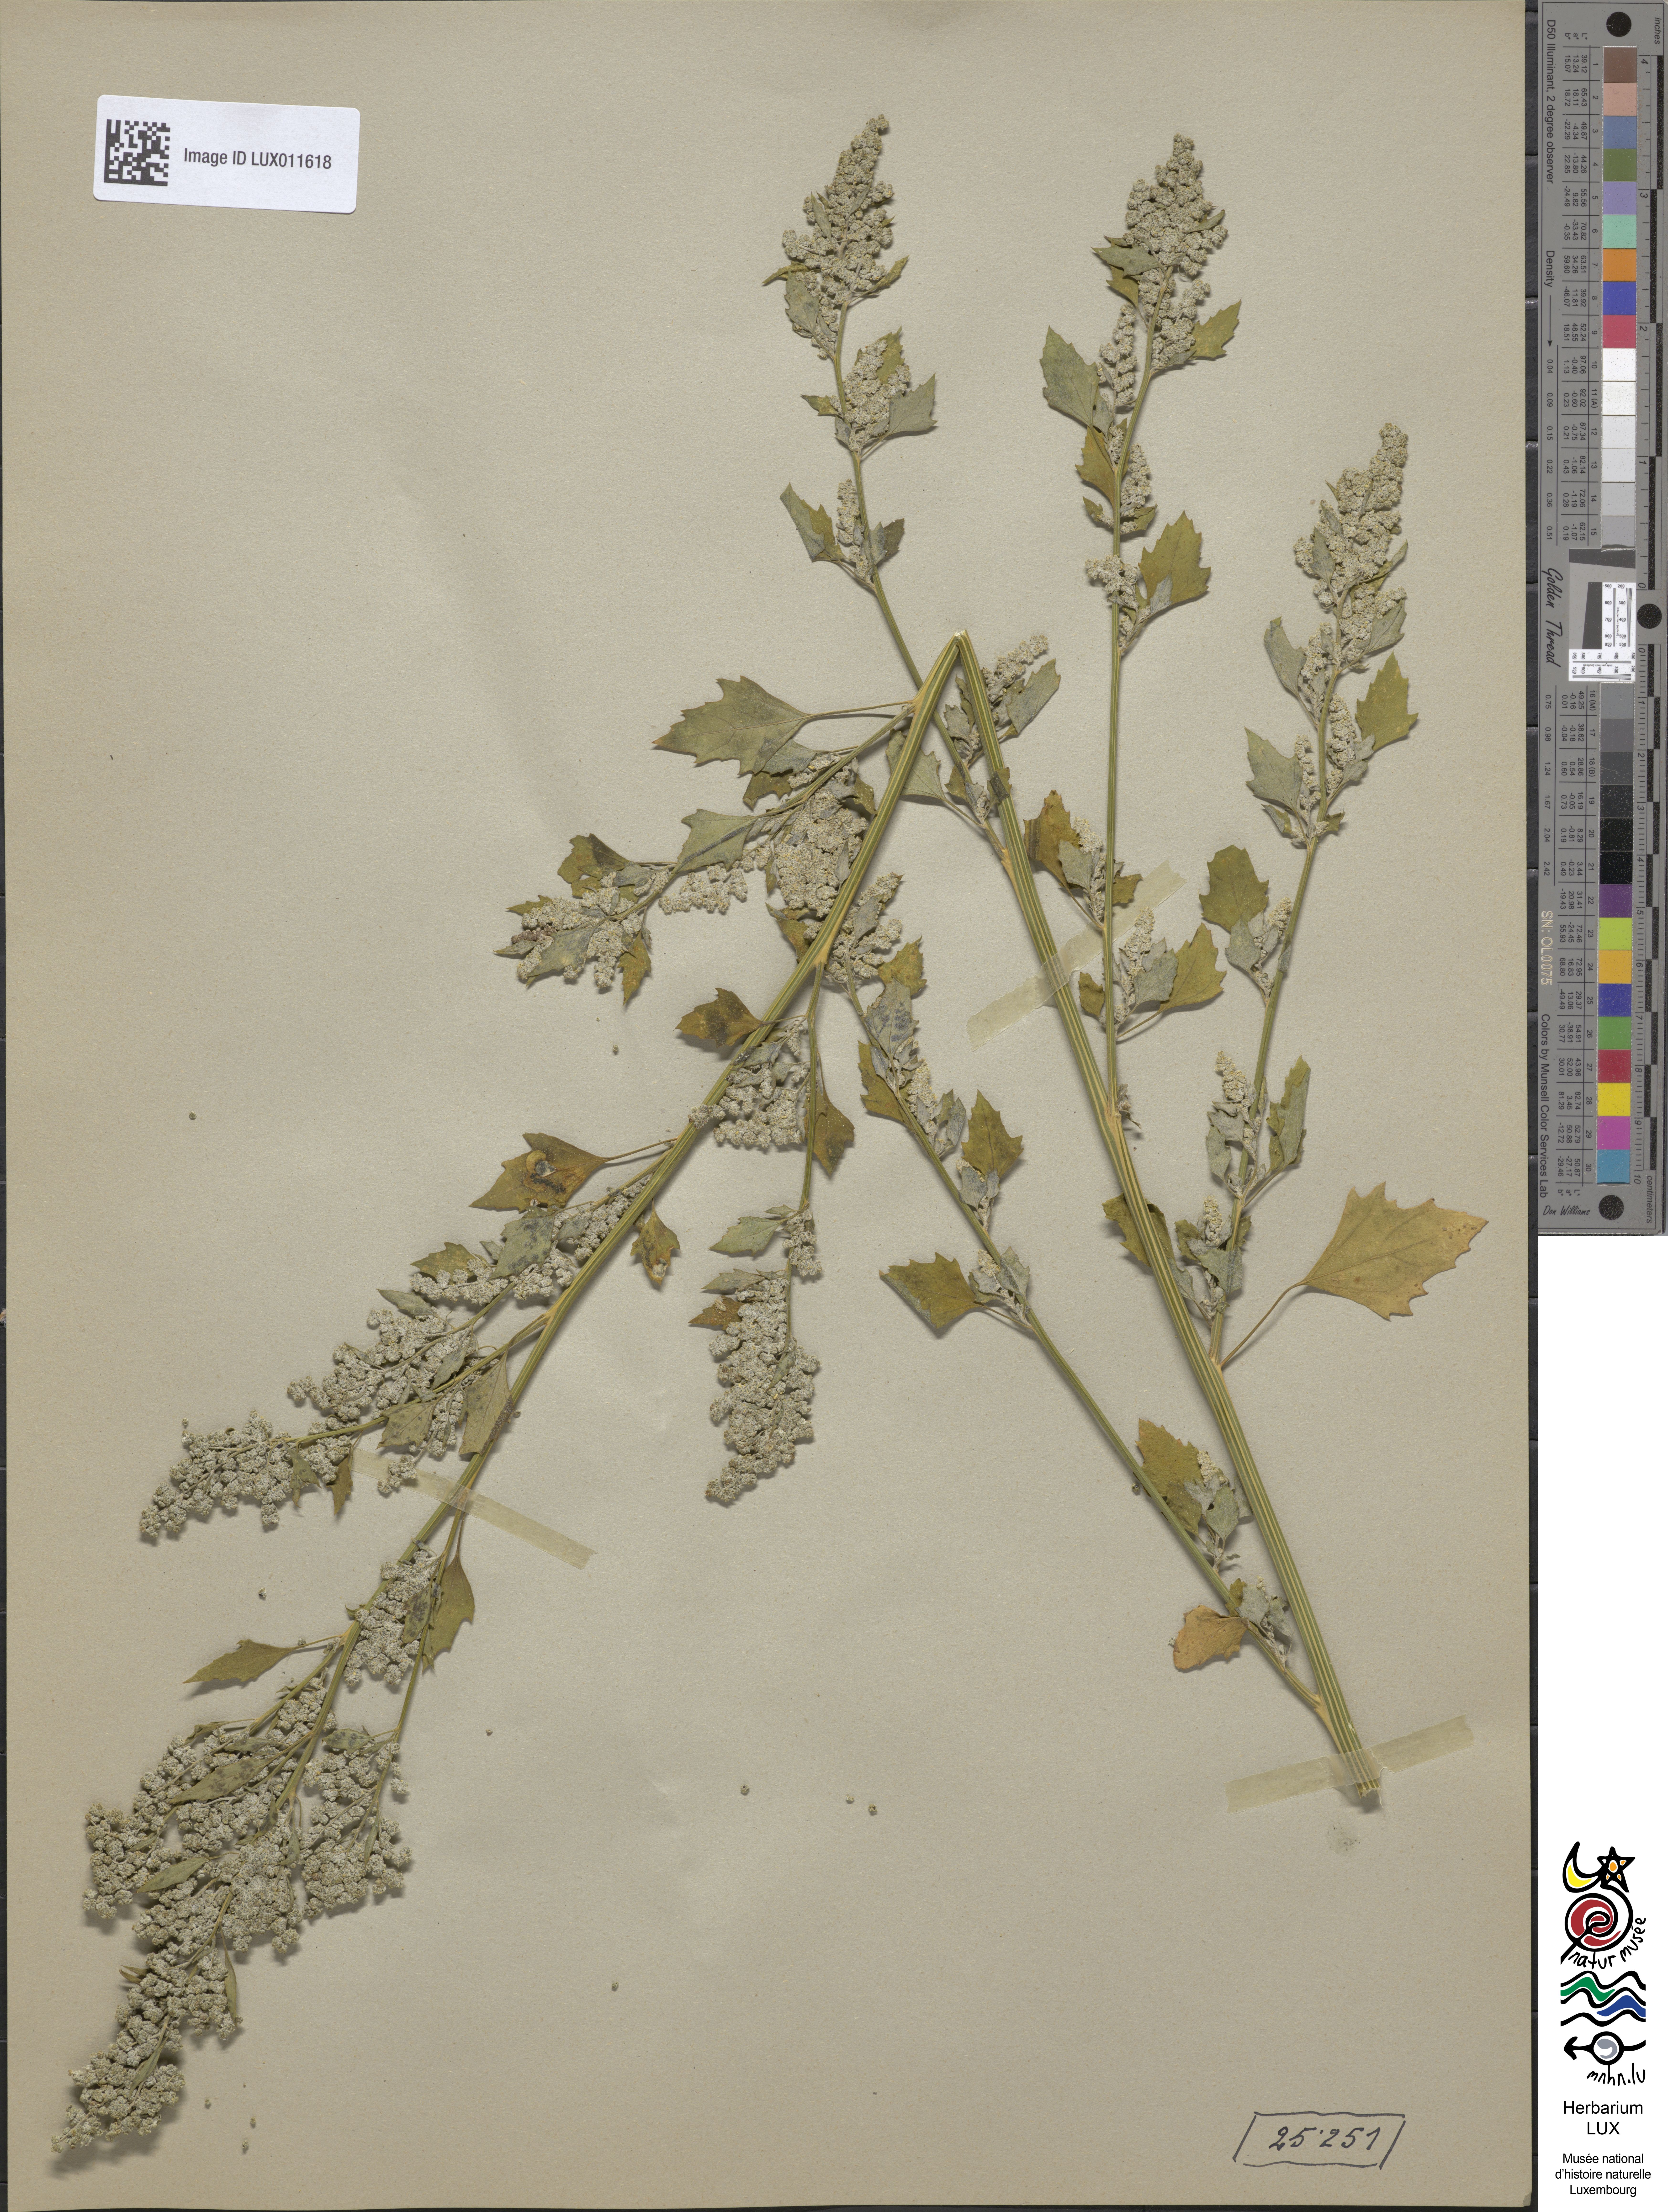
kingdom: Plantae
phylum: Tracheophyta
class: Magnoliopsida
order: Caryophyllales
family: Amaranthaceae
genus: Chenopodium
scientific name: Chenopodium opulifolium
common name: Grey goosefoot
